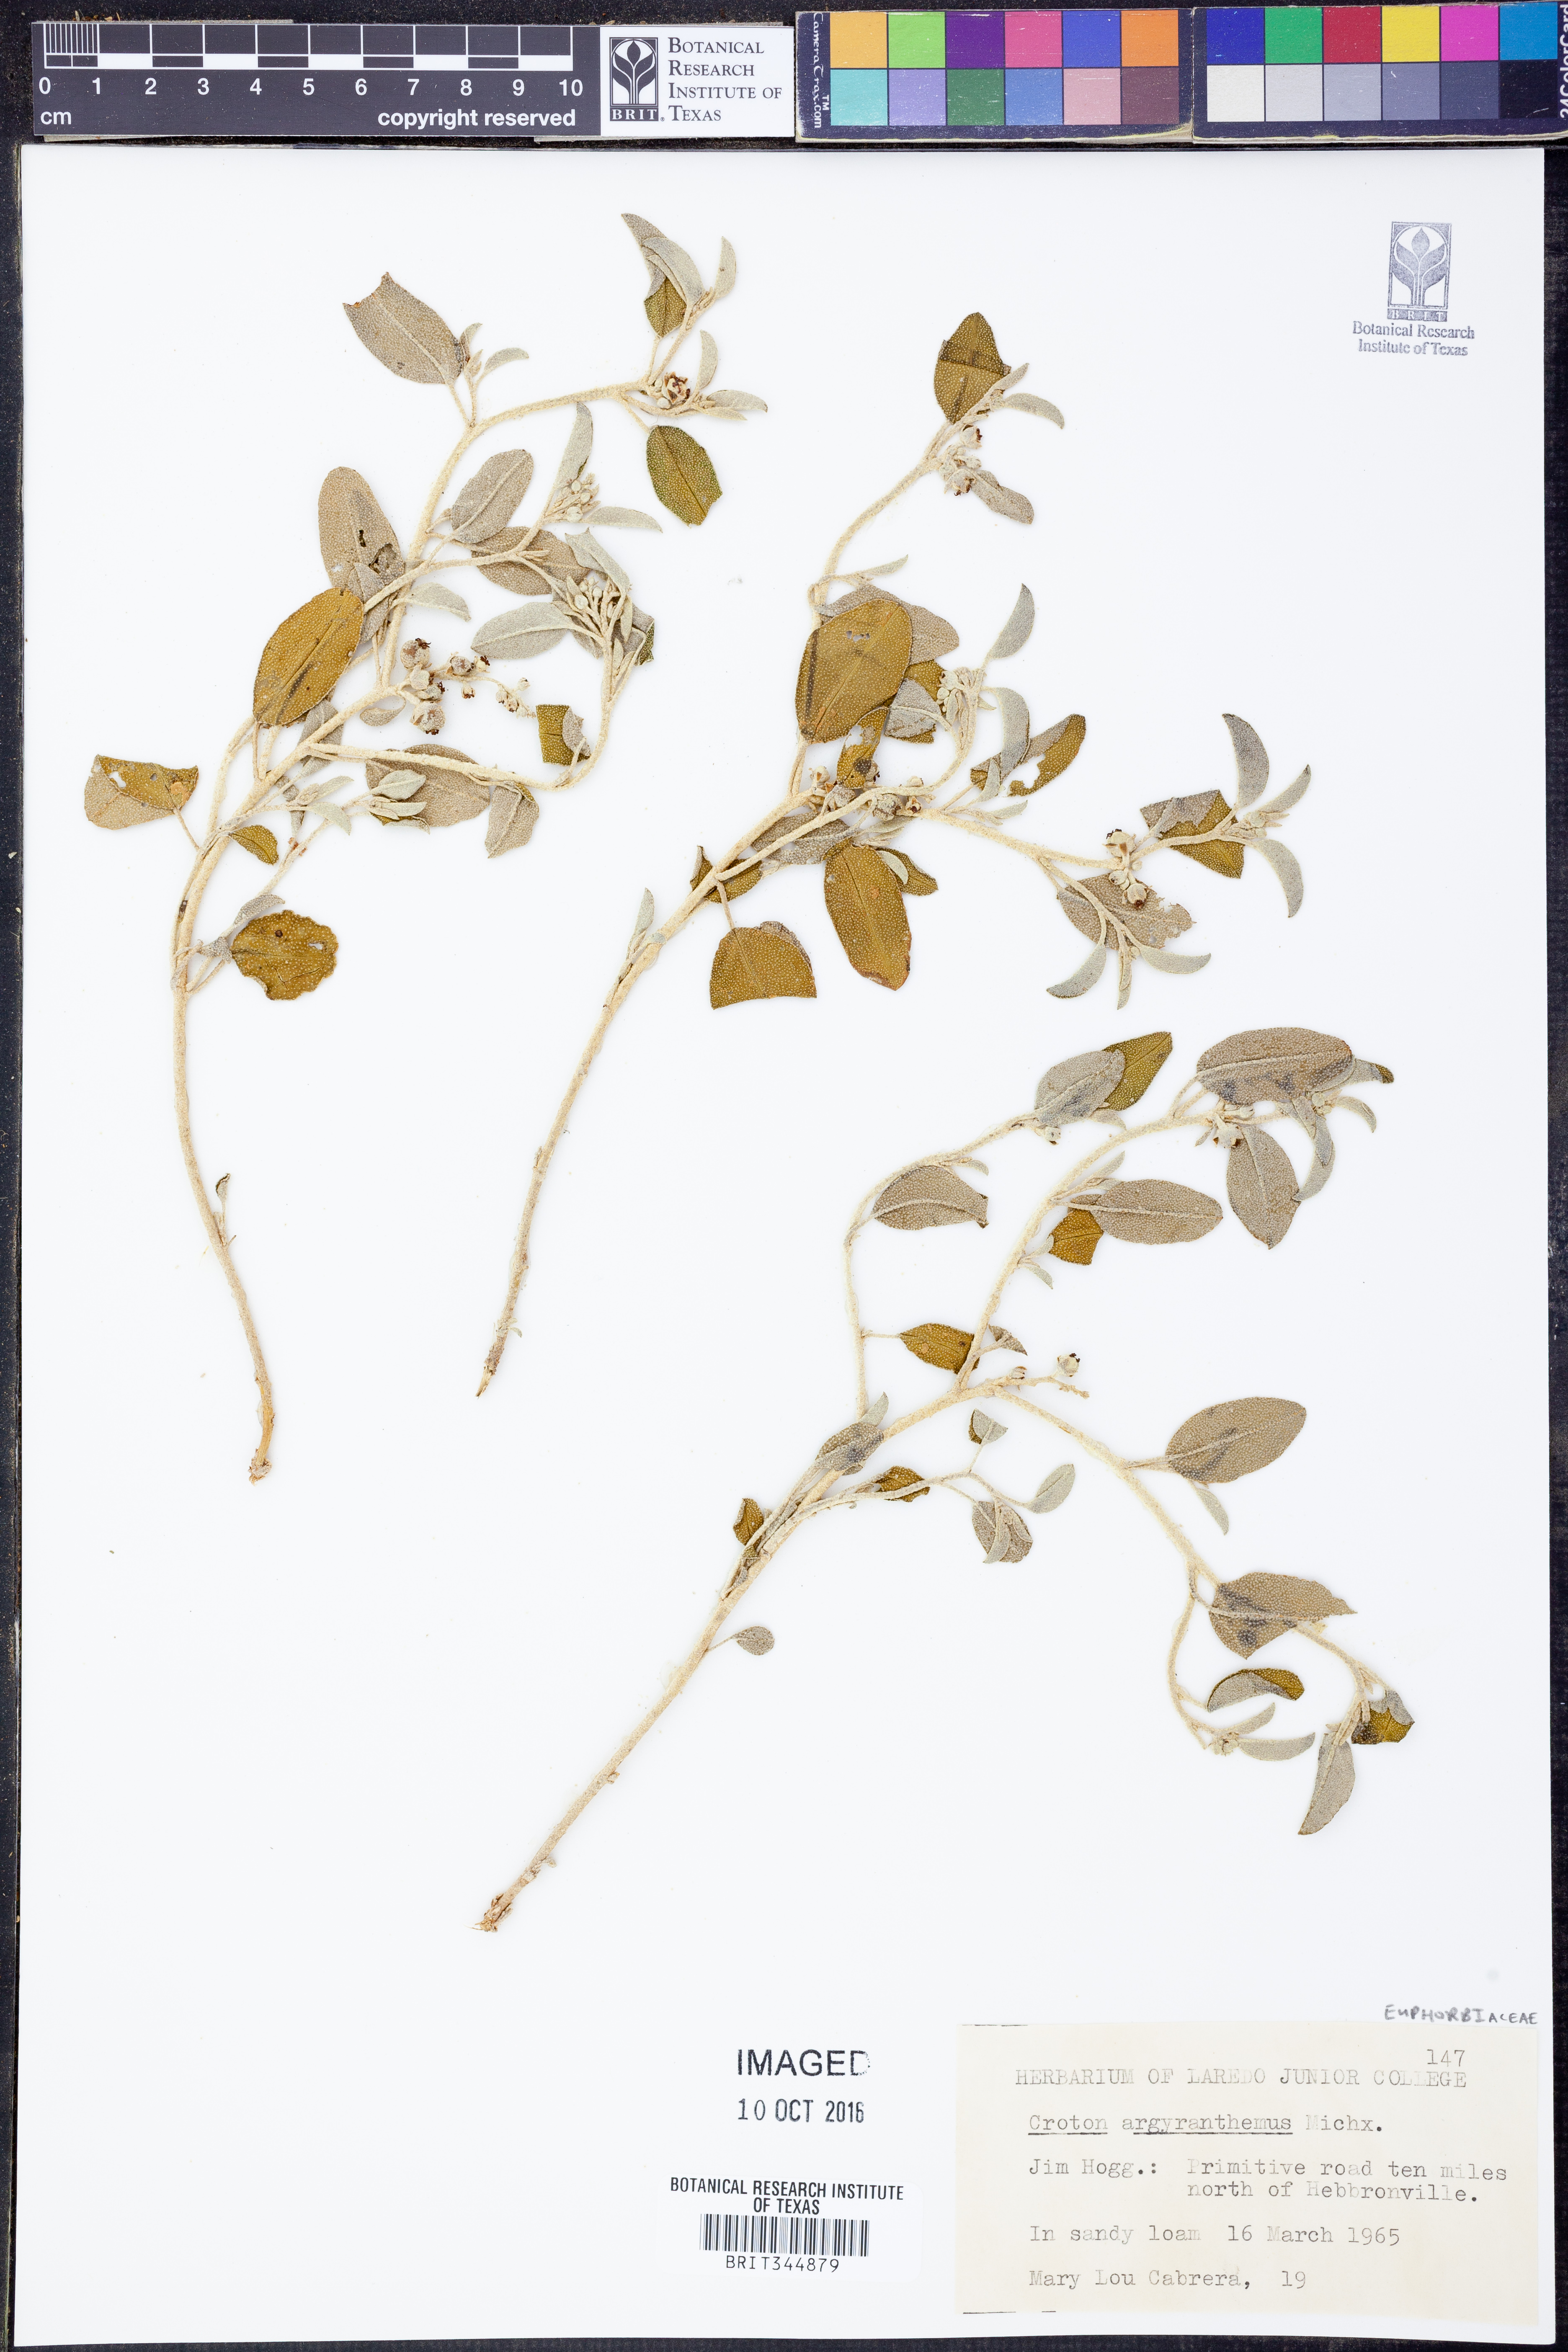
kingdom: Plantae
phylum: Tracheophyta
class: Magnoliopsida
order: Malpighiales
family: Euphorbiaceae
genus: Croton
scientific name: Croton argyranthemus
